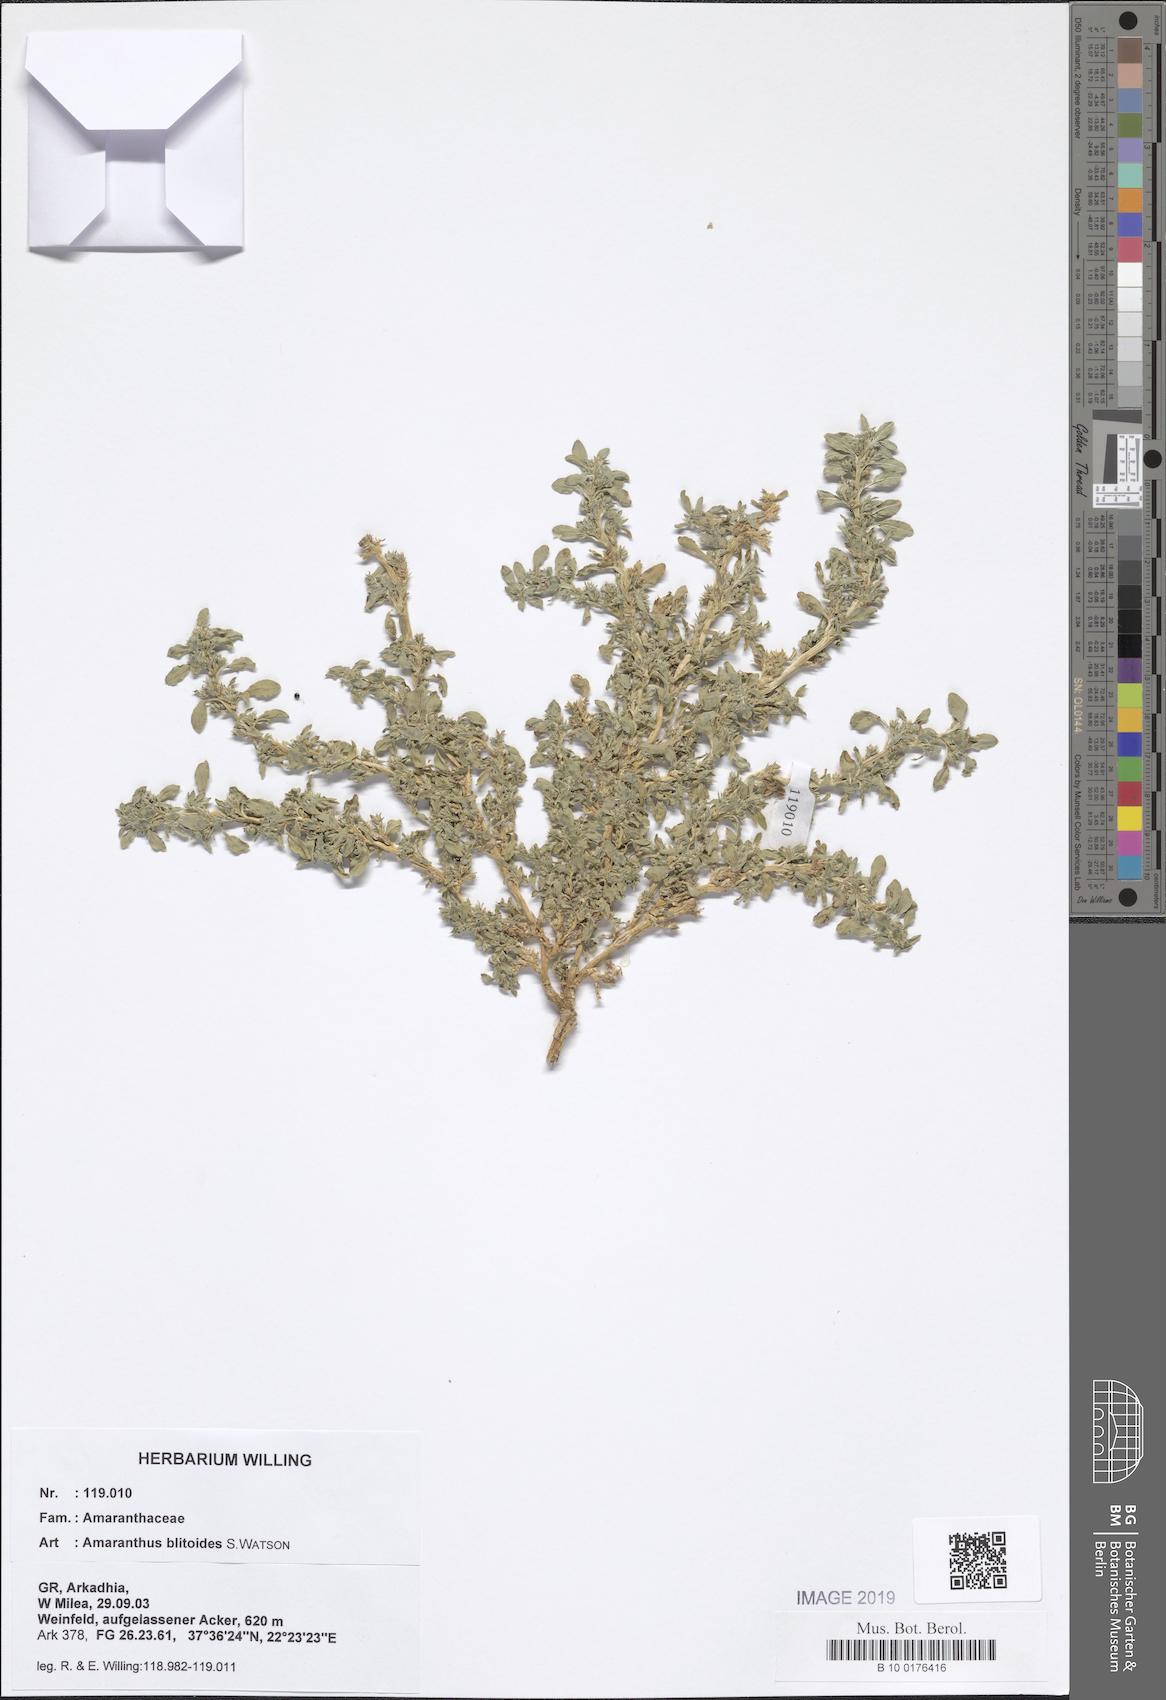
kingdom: Plantae
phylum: Tracheophyta
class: Magnoliopsida
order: Caryophyllales
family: Amaranthaceae
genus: Amaranthus
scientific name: Amaranthus blitoides
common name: Prostrate pigweed
